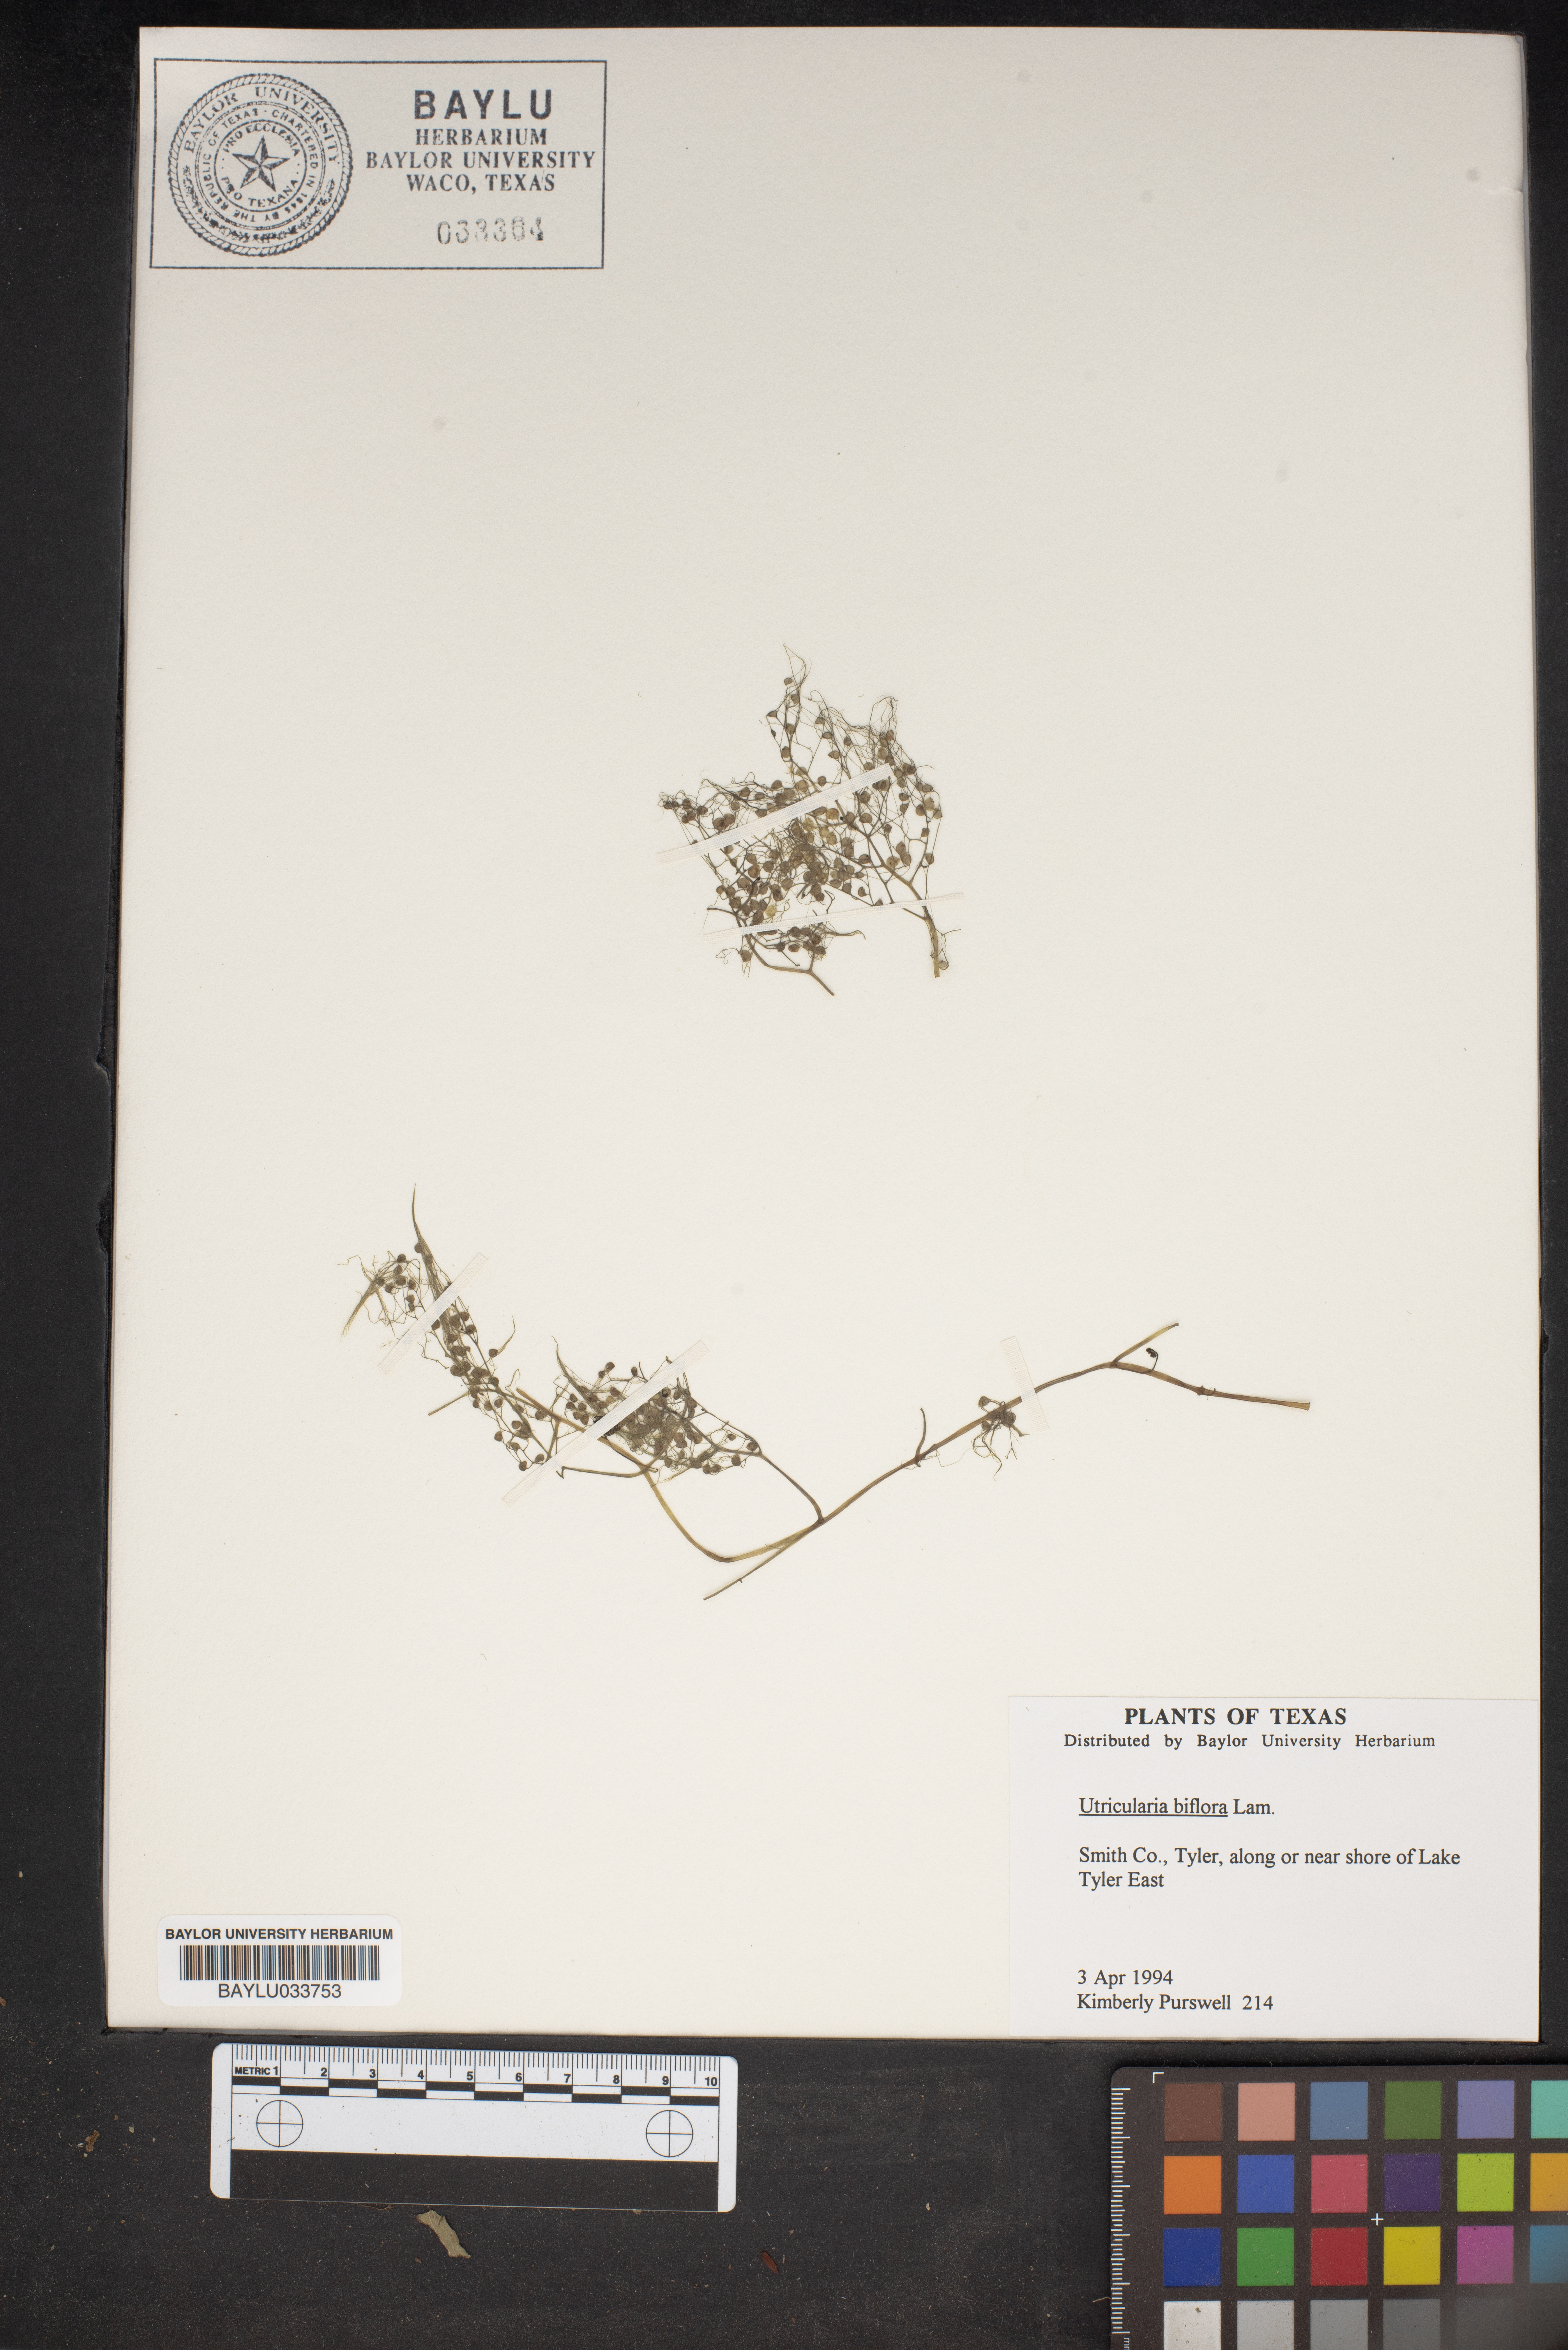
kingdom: Plantae
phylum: Tracheophyta
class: Magnoliopsida
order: Lamiales
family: Lentibulariaceae
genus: Utricularia
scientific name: Utricularia bifida
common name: Bifid bladderwort
